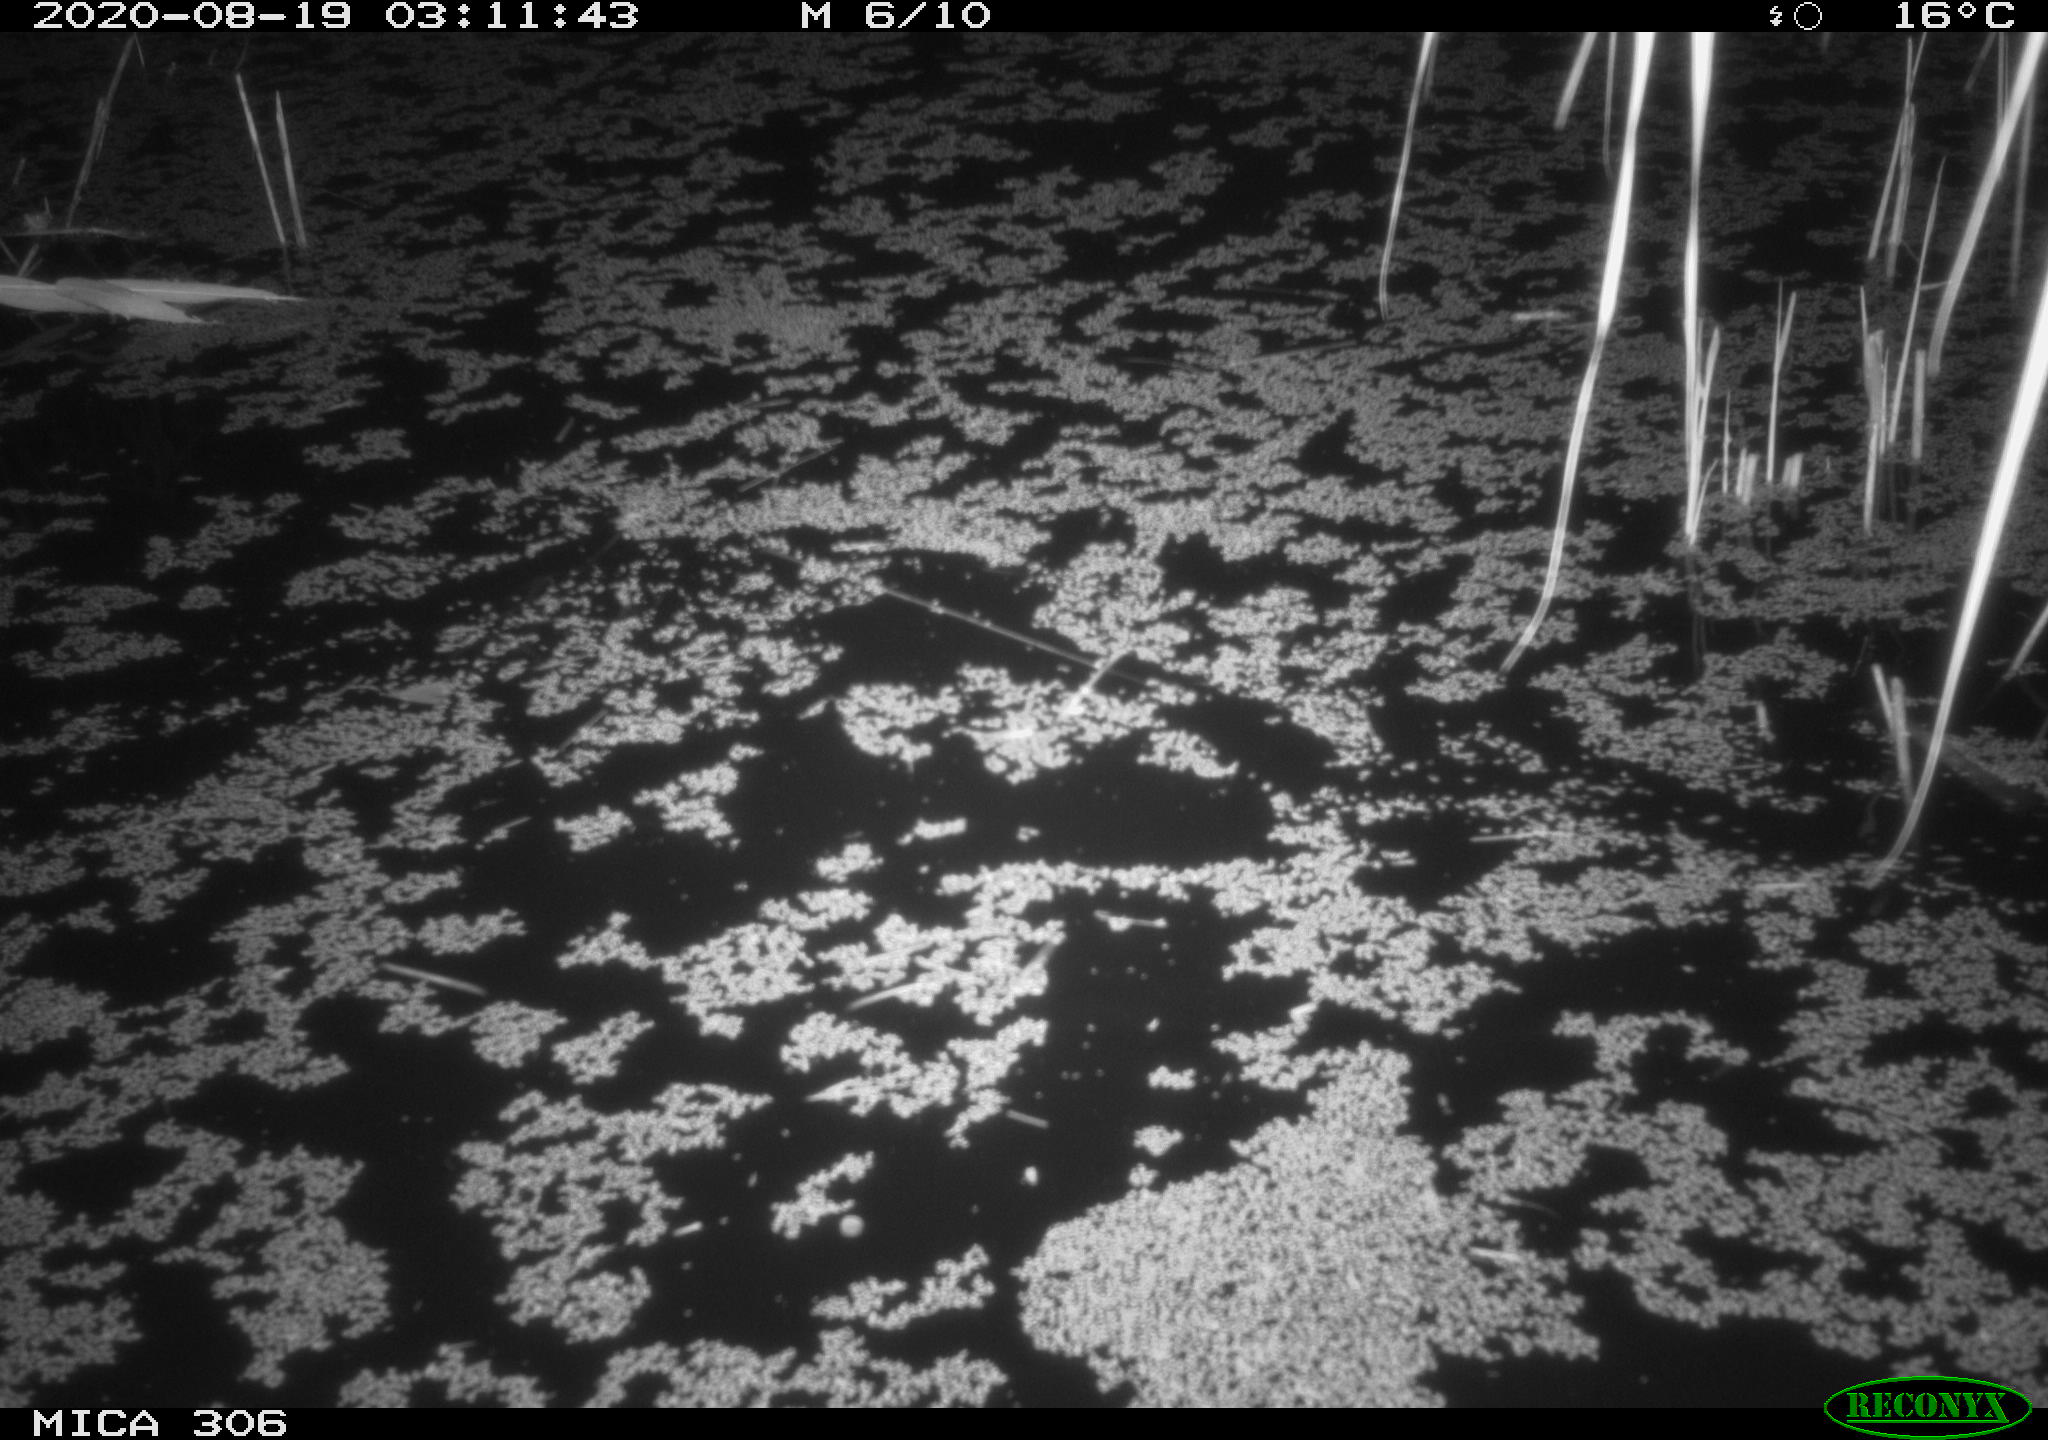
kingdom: Animalia
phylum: Chordata
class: Mammalia
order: Rodentia
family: Muridae
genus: Rattus
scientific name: Rattus norvegicus
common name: Brown rat
